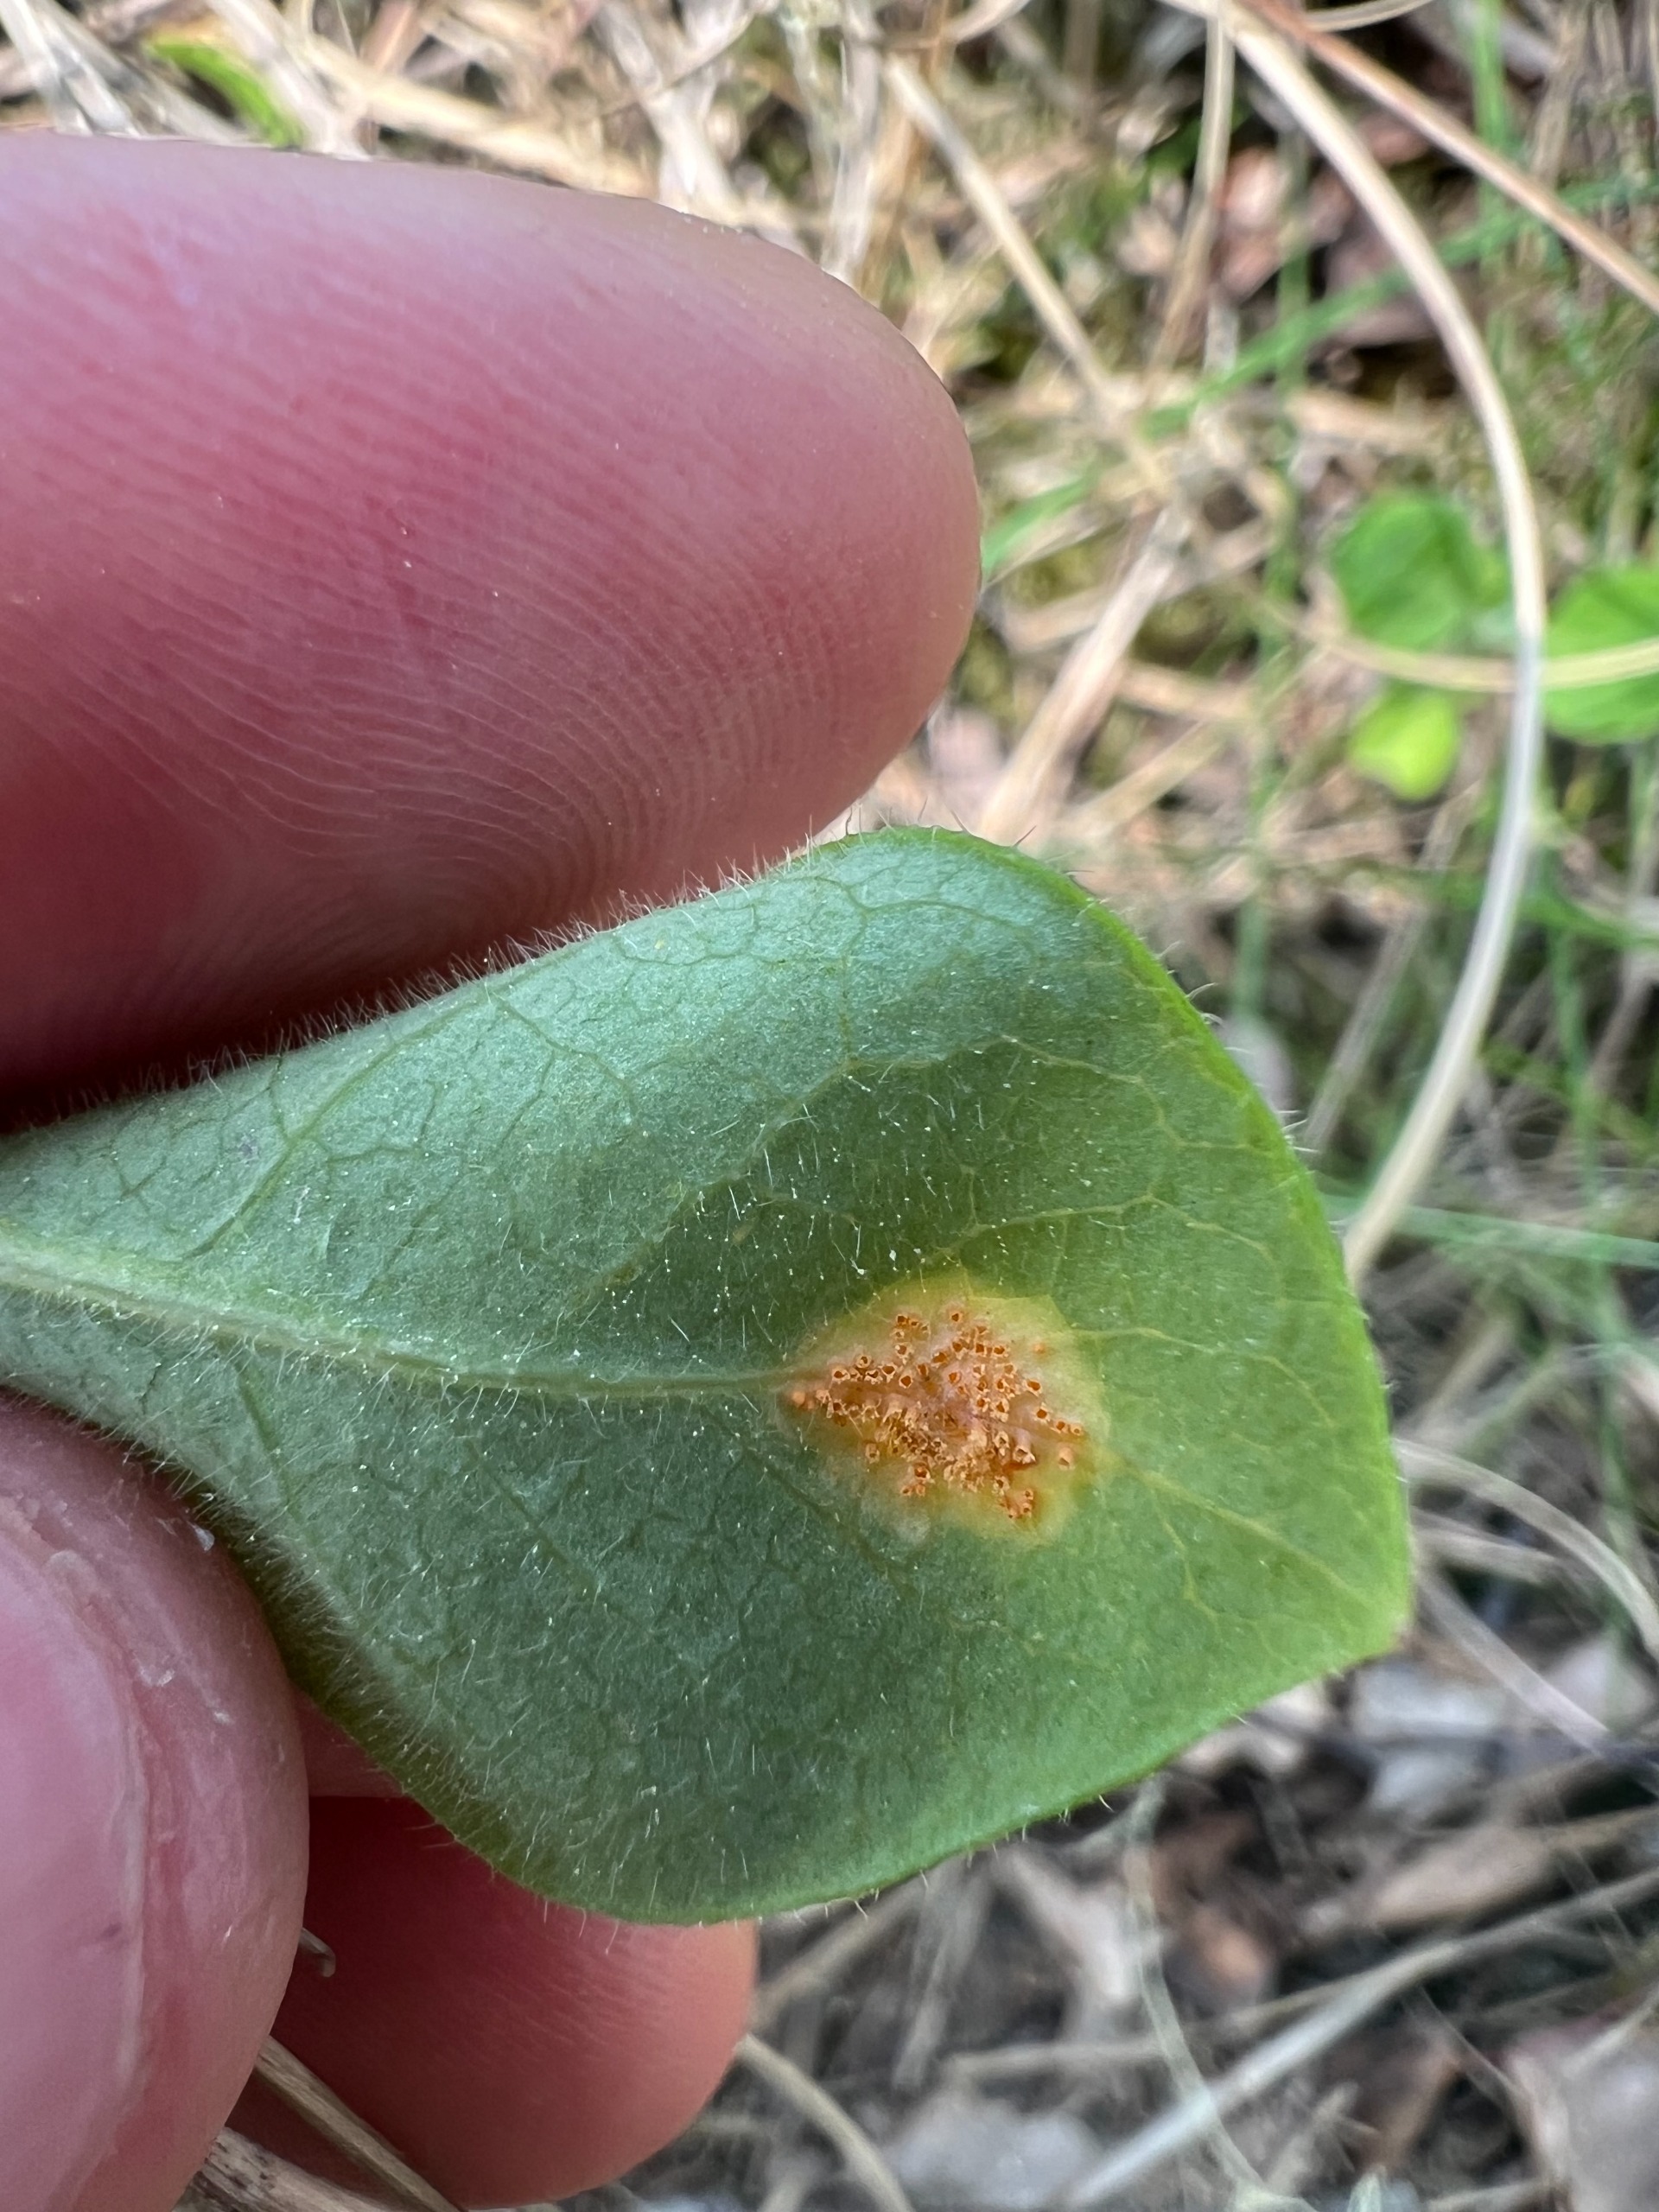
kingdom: Fungi
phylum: Basidiomycota
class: Pucciniomycetes
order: Pucciniales
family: Pucciniaceae
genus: Puccinia
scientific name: Puccinia festucae
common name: Gedeblad-tvecellerust
